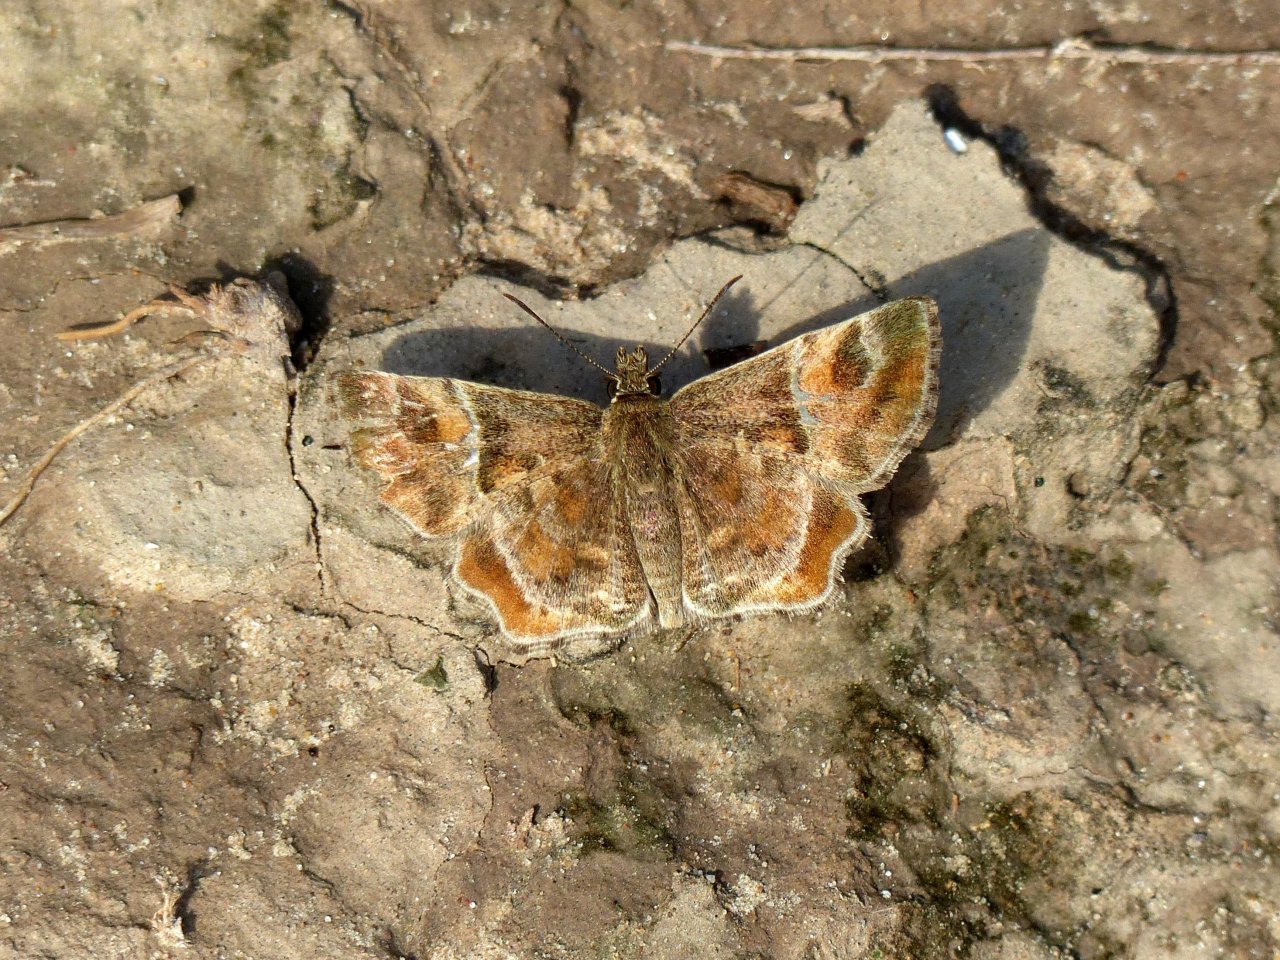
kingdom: Animalia
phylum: Arthropoda
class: Insecta
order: Lepidoptera
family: Hesperiidae
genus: Systasea
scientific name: Systasea pulverulenta
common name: Texas Powdered-Skipper
